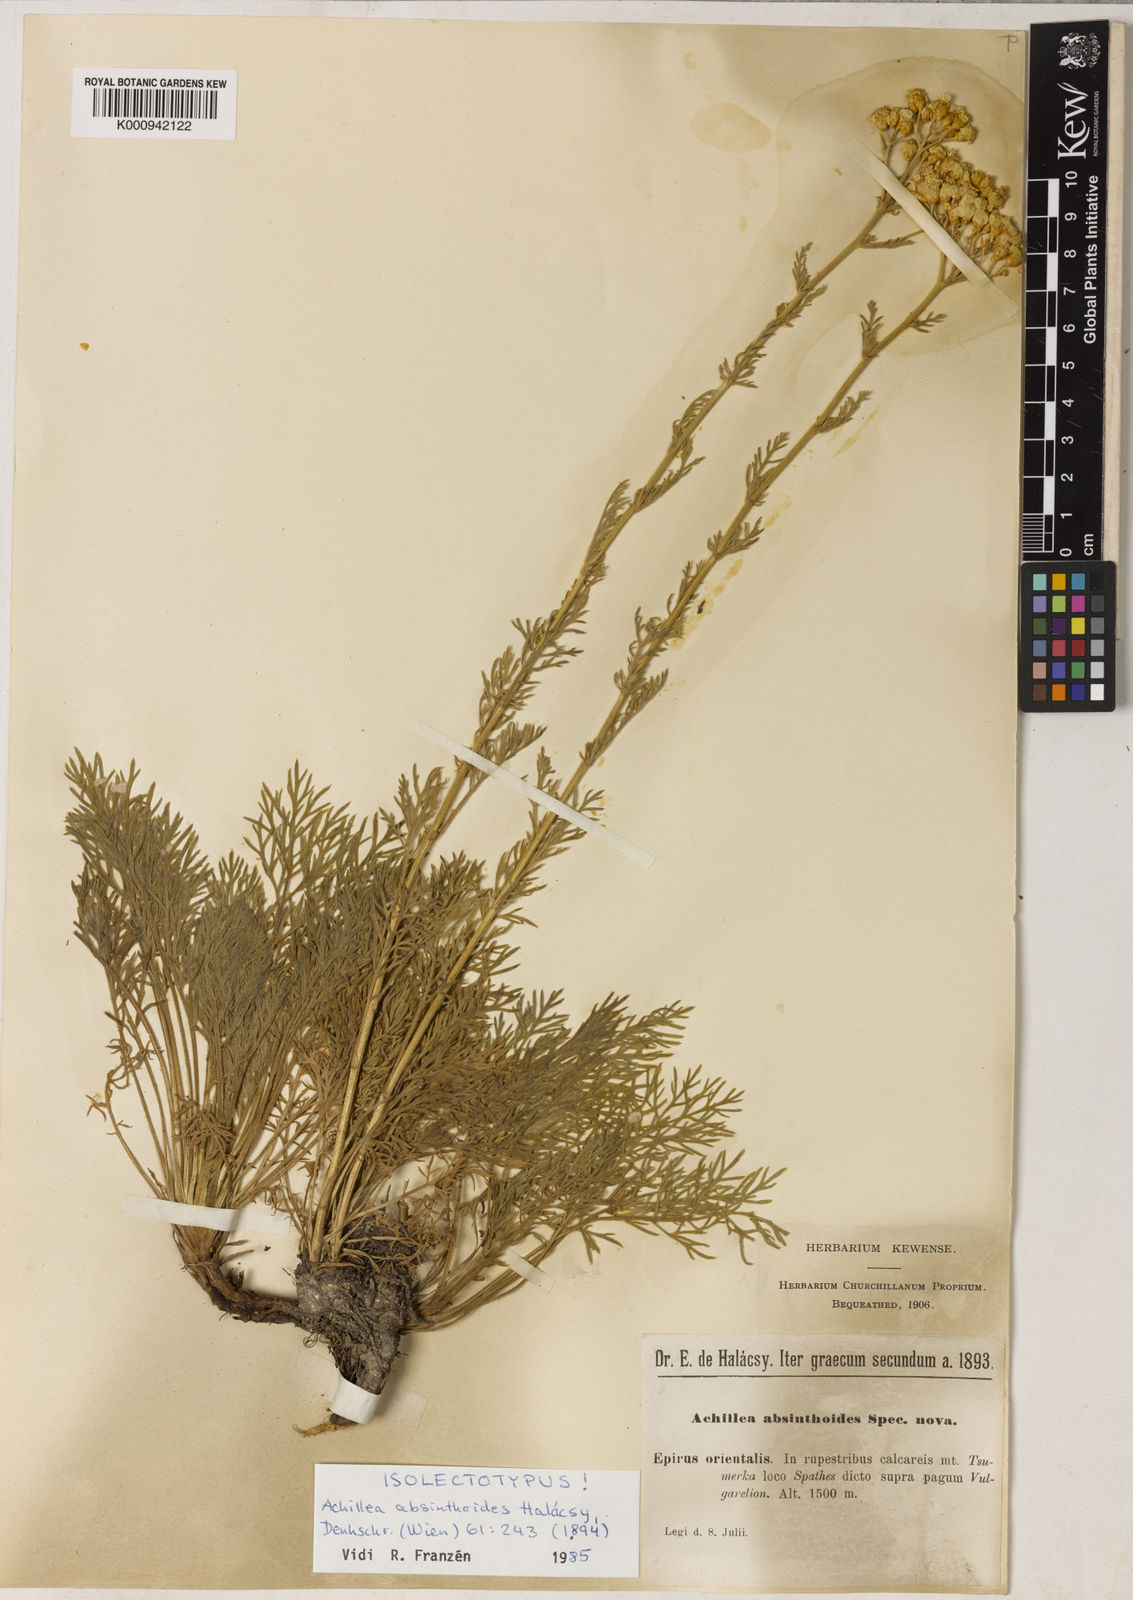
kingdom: Plantae
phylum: Tracheophyta
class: Magnoliopsida
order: Asterales
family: Asteraceae
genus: Achillea
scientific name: Achillea
